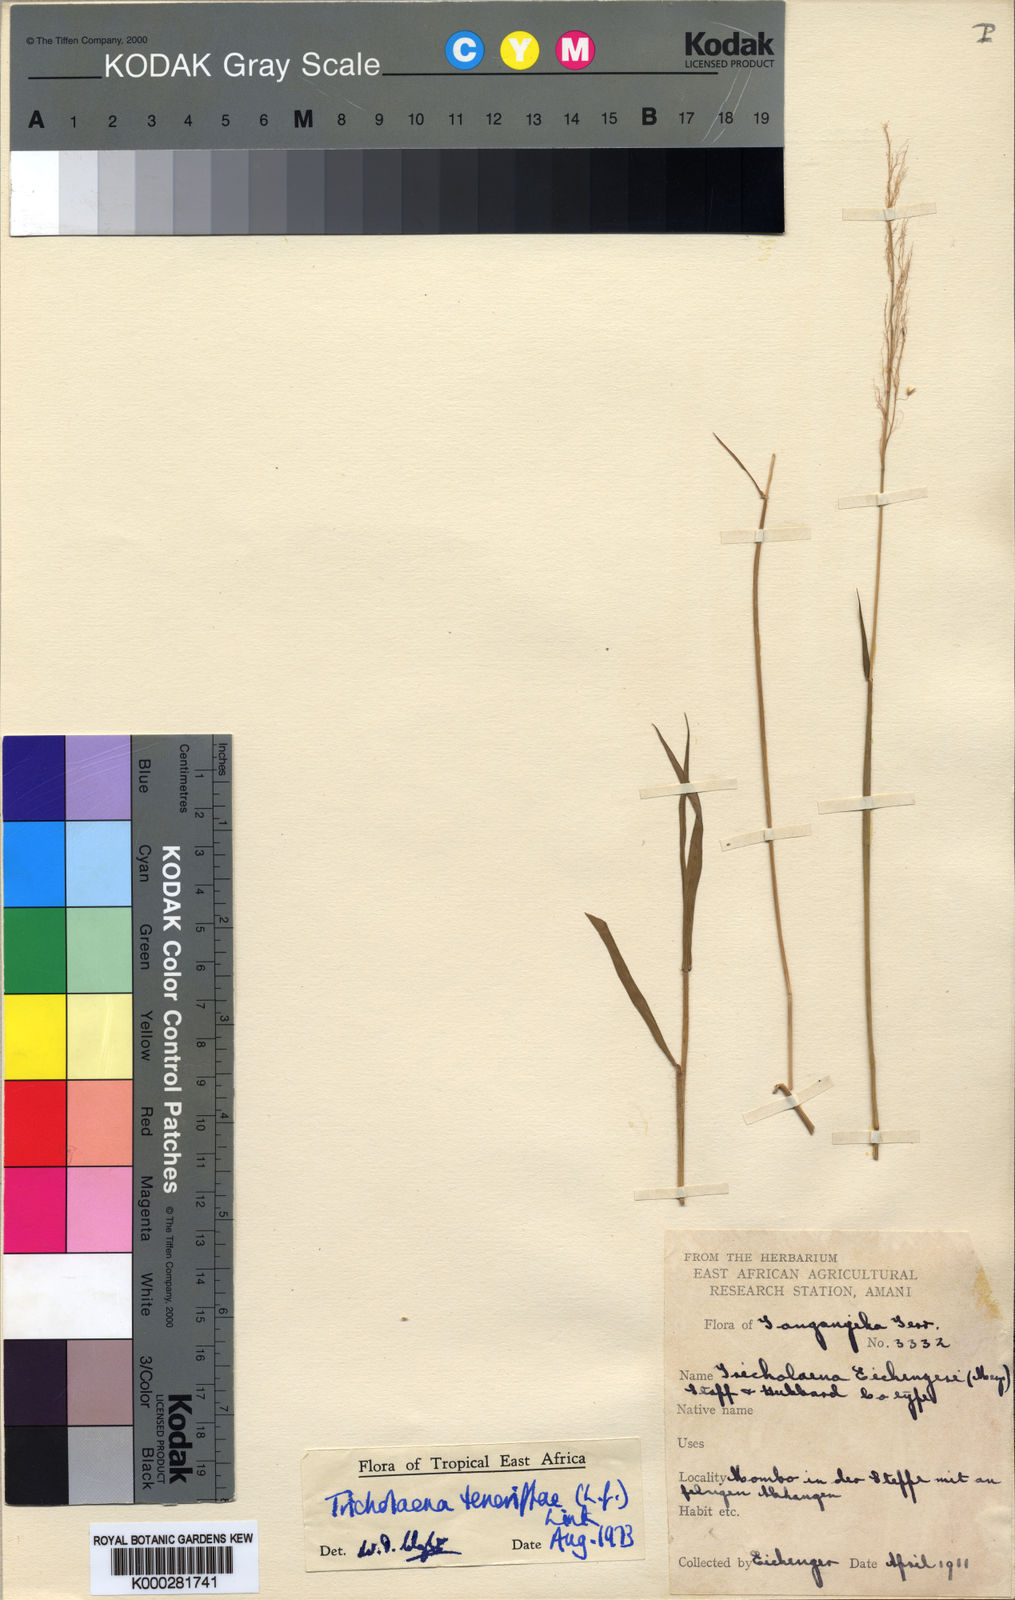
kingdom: Plantae
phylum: Tracheophyta
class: Liliopsida
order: Poales
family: Poaceae
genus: Melinis
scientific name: Melinis scabrida
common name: Millet grass
